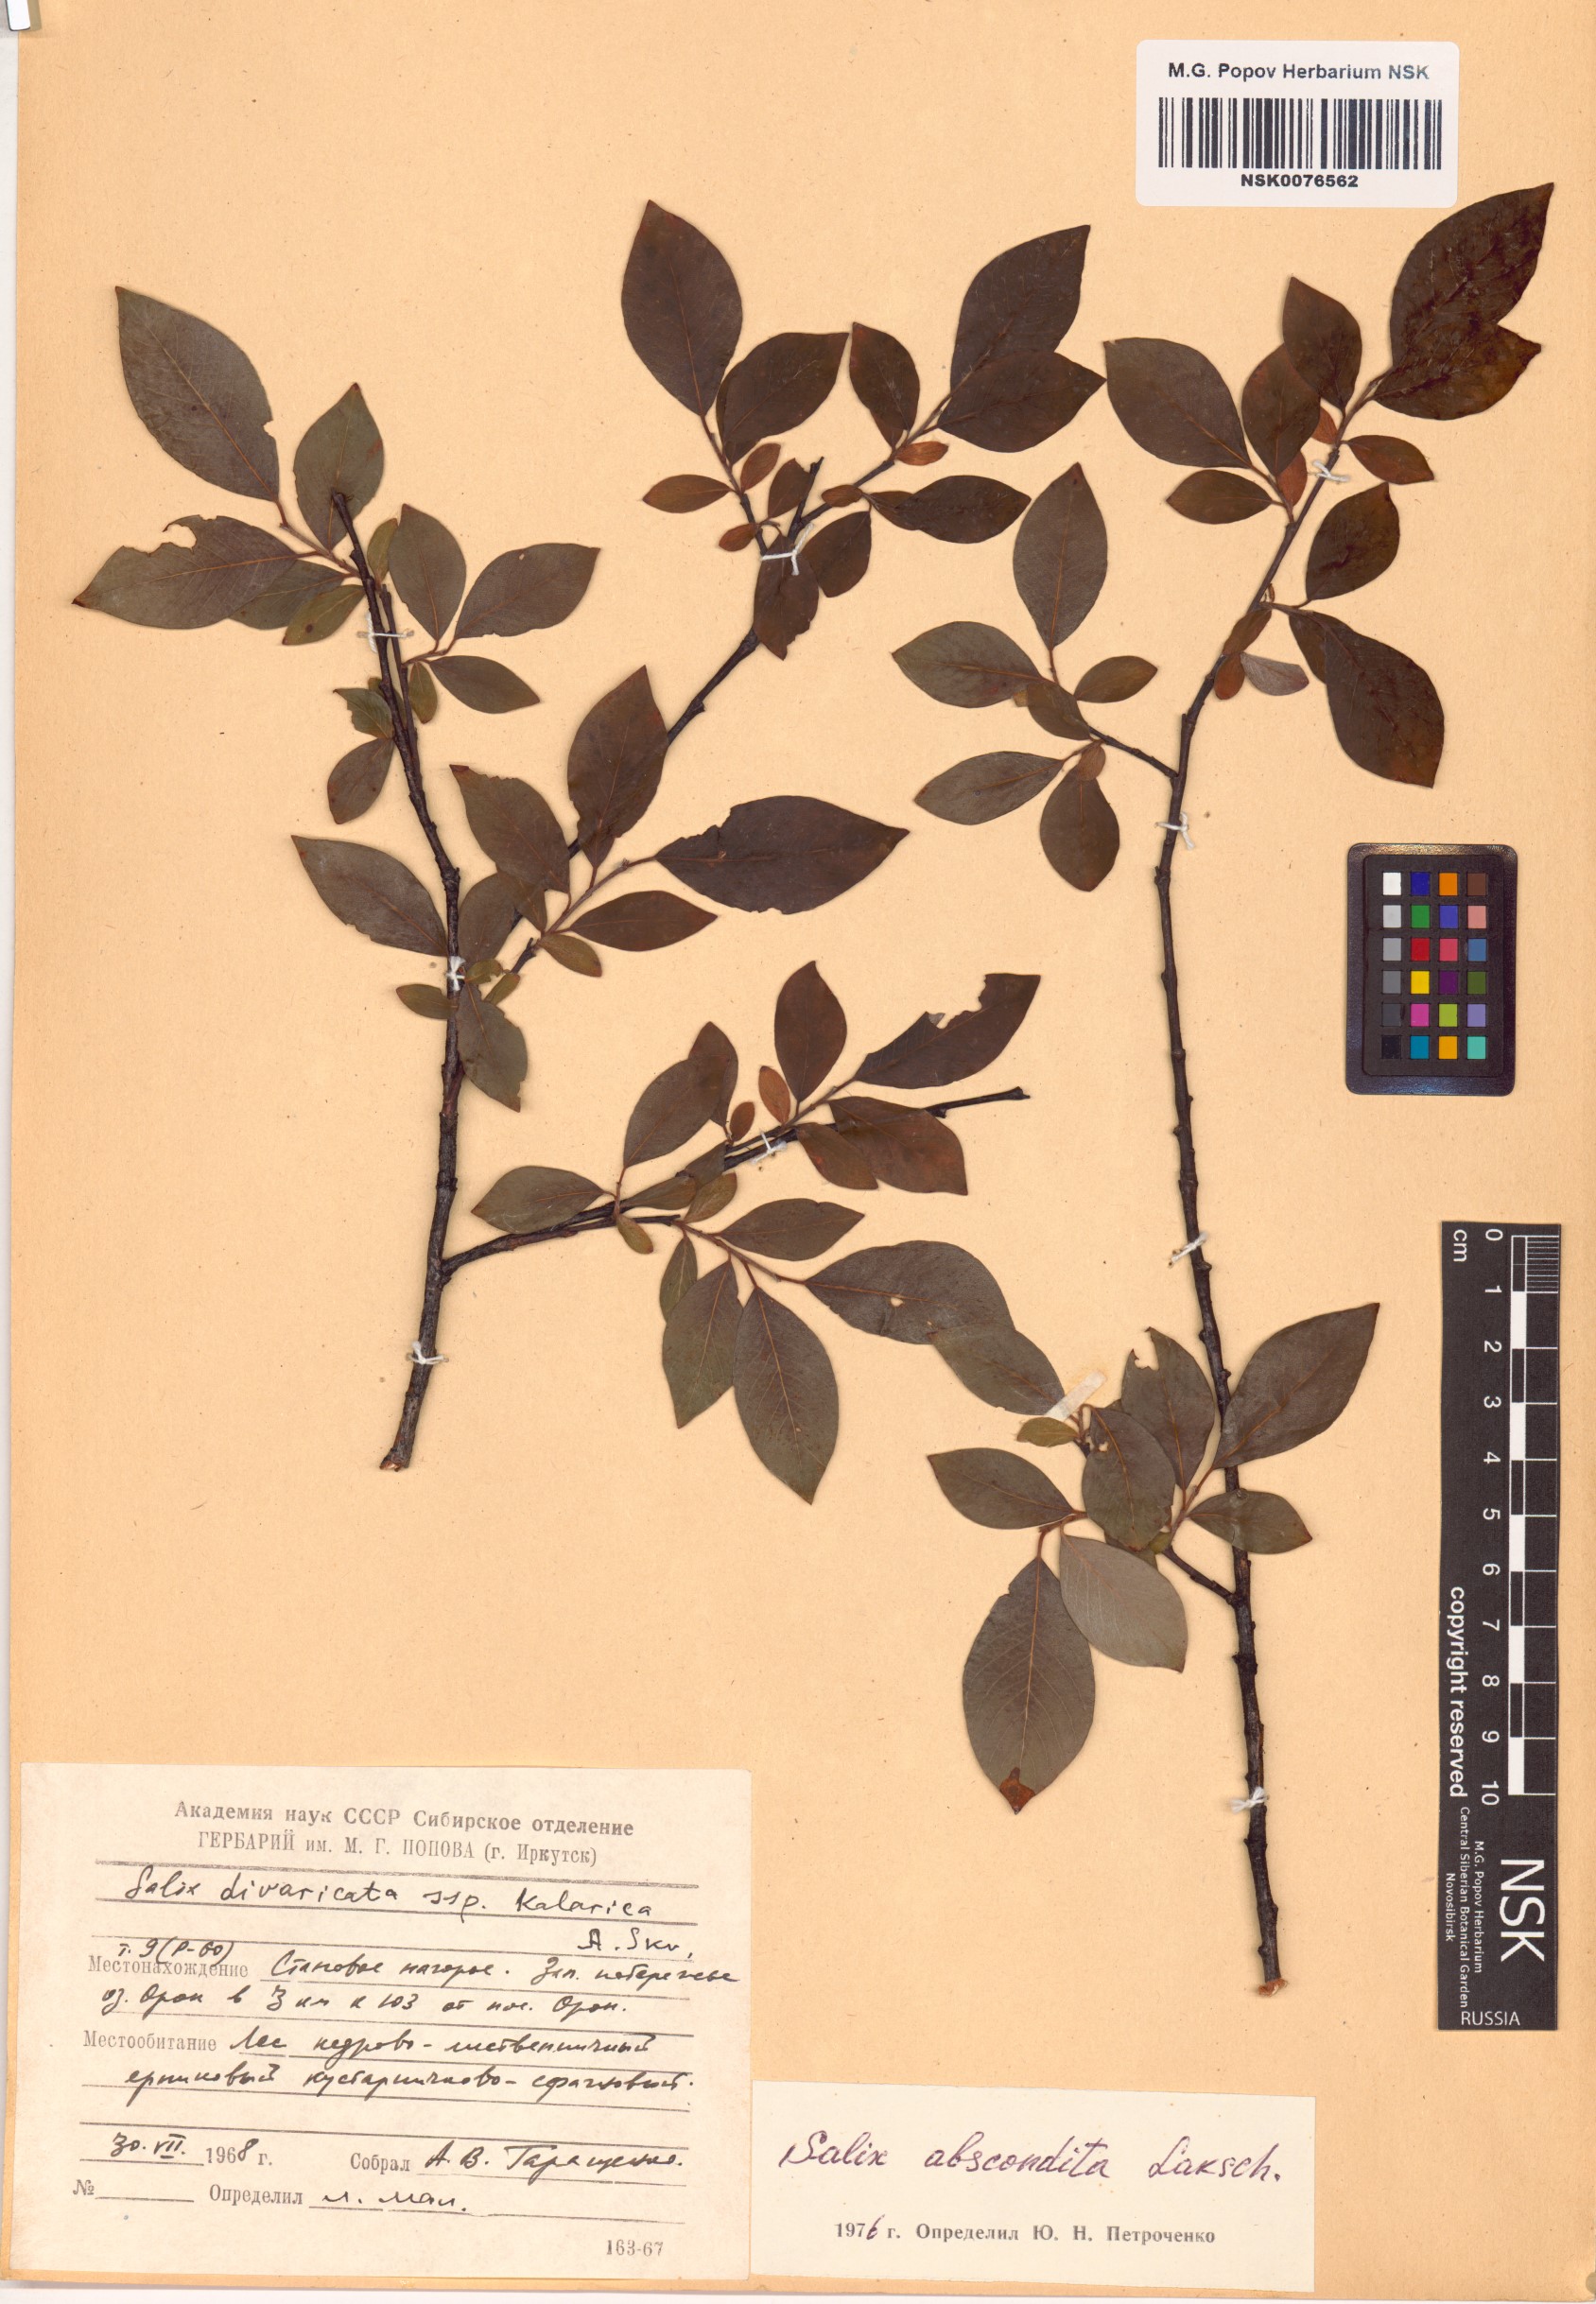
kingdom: Plantae
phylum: Tracheophyta
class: Magnoliopsida
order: Malpighiales
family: Salicaceae
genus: Salix
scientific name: Salix abscondita
